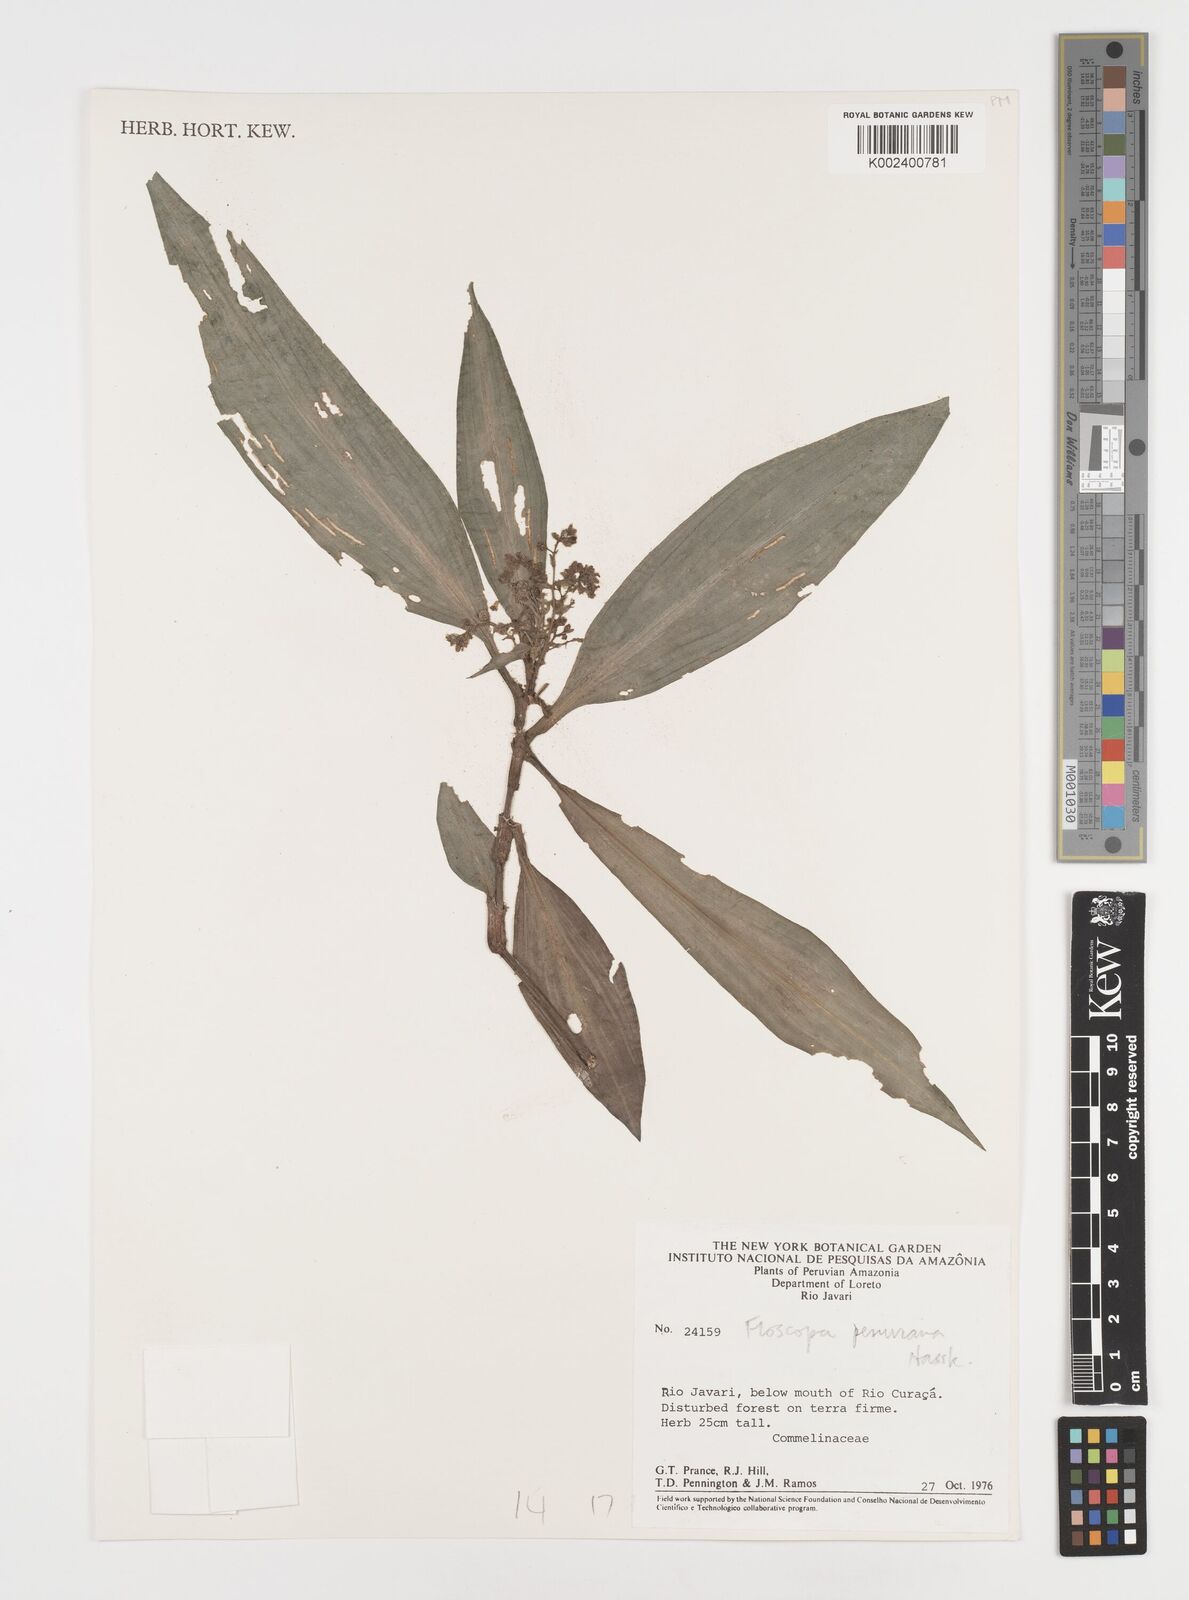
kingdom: Plantae
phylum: Tracheophyta
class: Liliopsida
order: Commelinales
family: Commelinaceae
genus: Floscopa
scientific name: Floscopa peruviana
